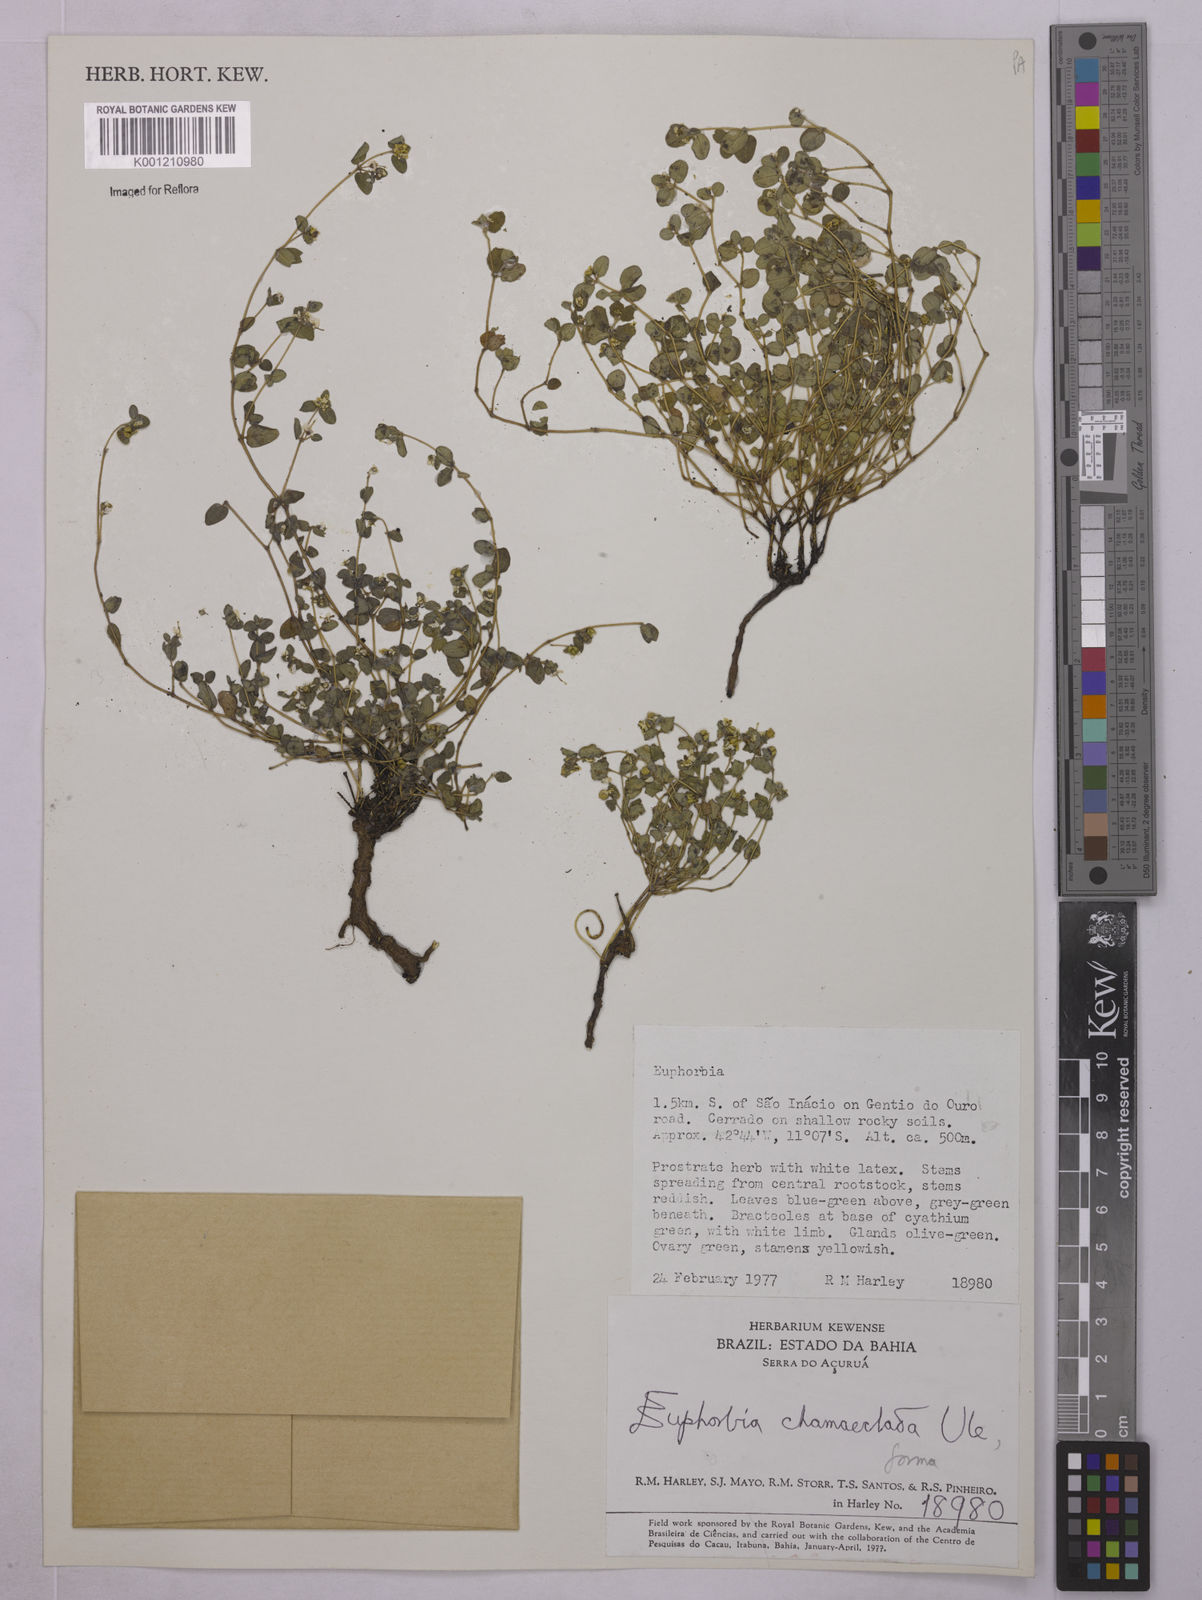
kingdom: Plantae
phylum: Tracheophyta
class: Magnoliopsida
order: Malpighiales
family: Euphorbiaceae
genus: Euphorbia
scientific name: Euphorbia chamaeclada
